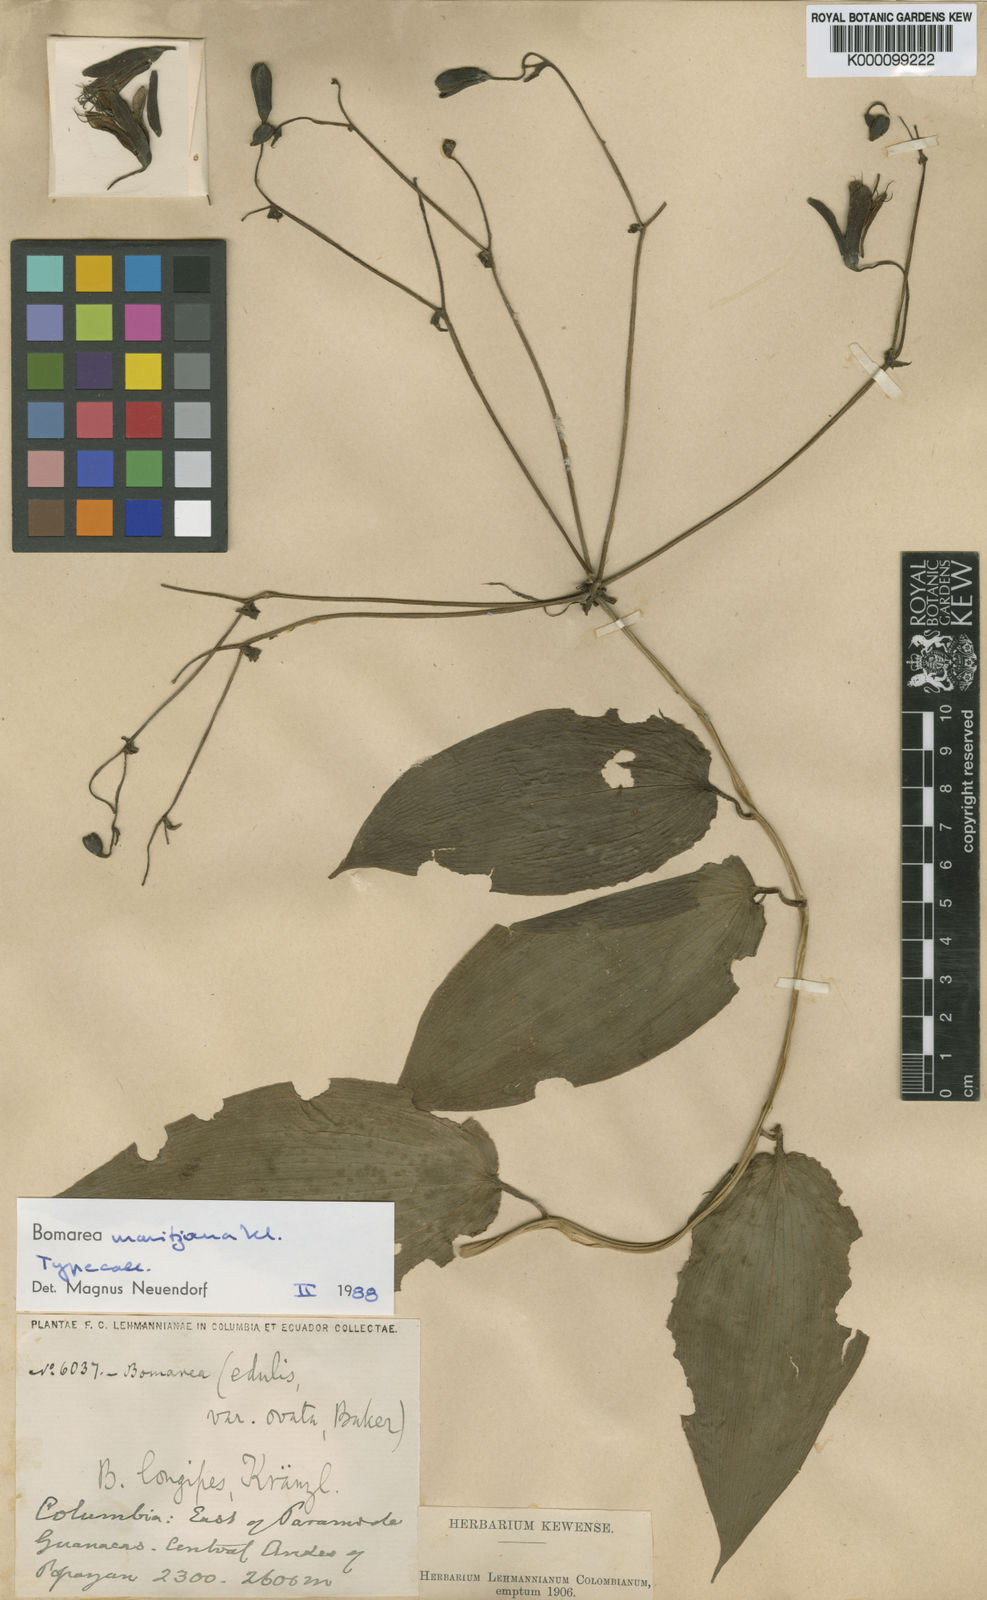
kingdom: Plantae
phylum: Tracheophyta
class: Liliopsida
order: Liliales
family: Alstroemeriaceae
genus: Bomarea
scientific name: Bomarea moritziana
